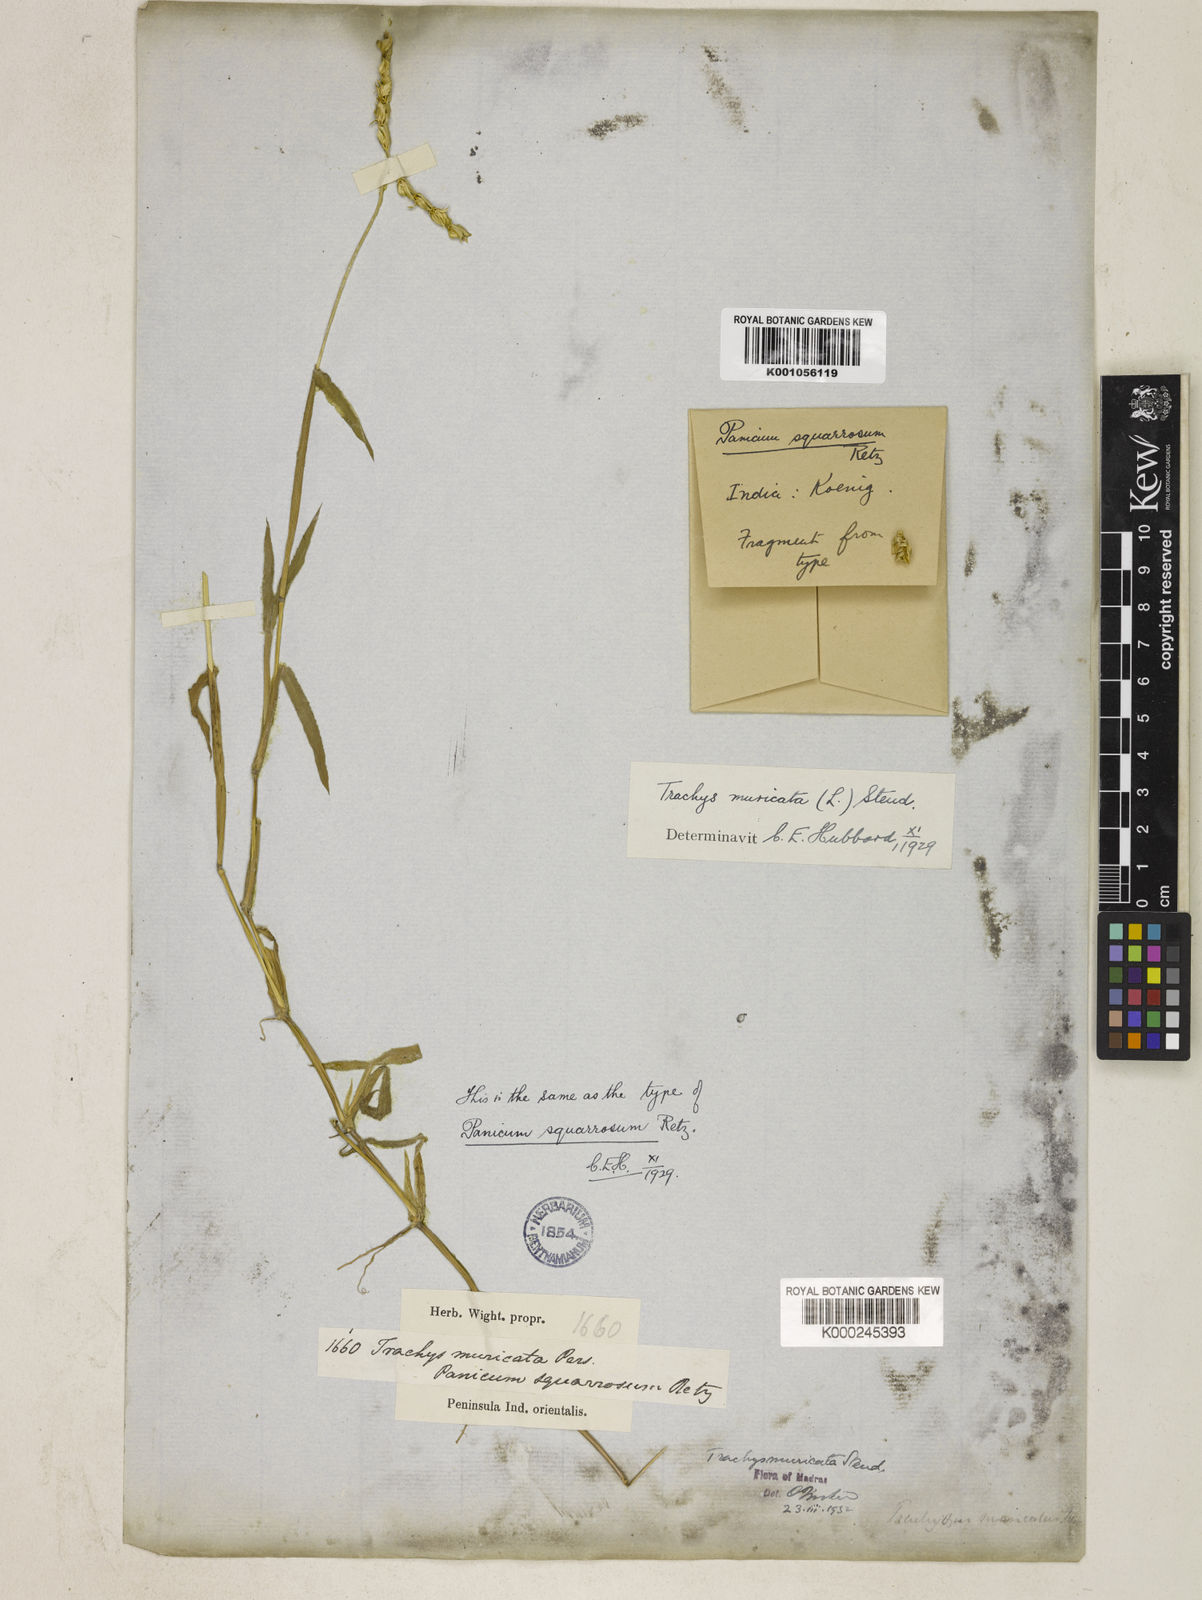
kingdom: Plantae
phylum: Tracheophyta
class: Liliopsida
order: Poales
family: Poaceae
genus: Trachys
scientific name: Trachys muricata
